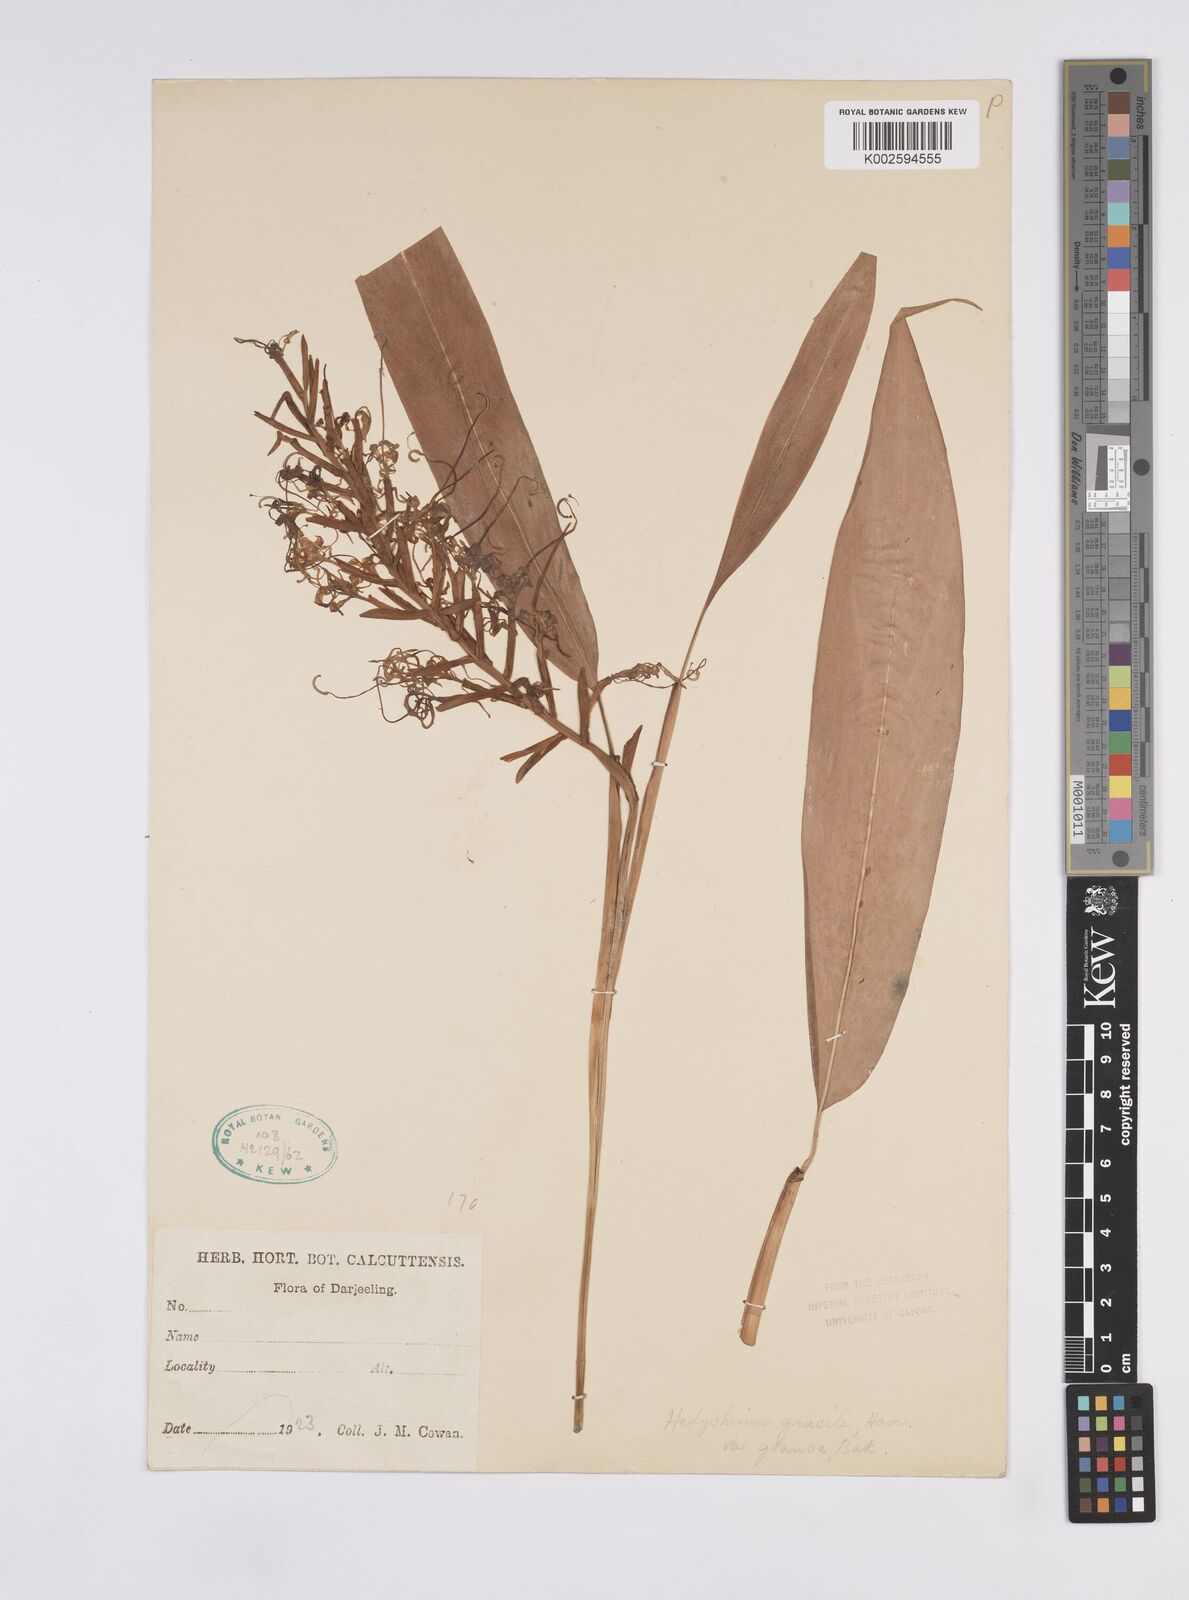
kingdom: Plantae
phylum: Tracheophyta
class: Liliopsida
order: Zingiberales
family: Zingiberaceae
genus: Hedychium
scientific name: Hedychium glaucum
